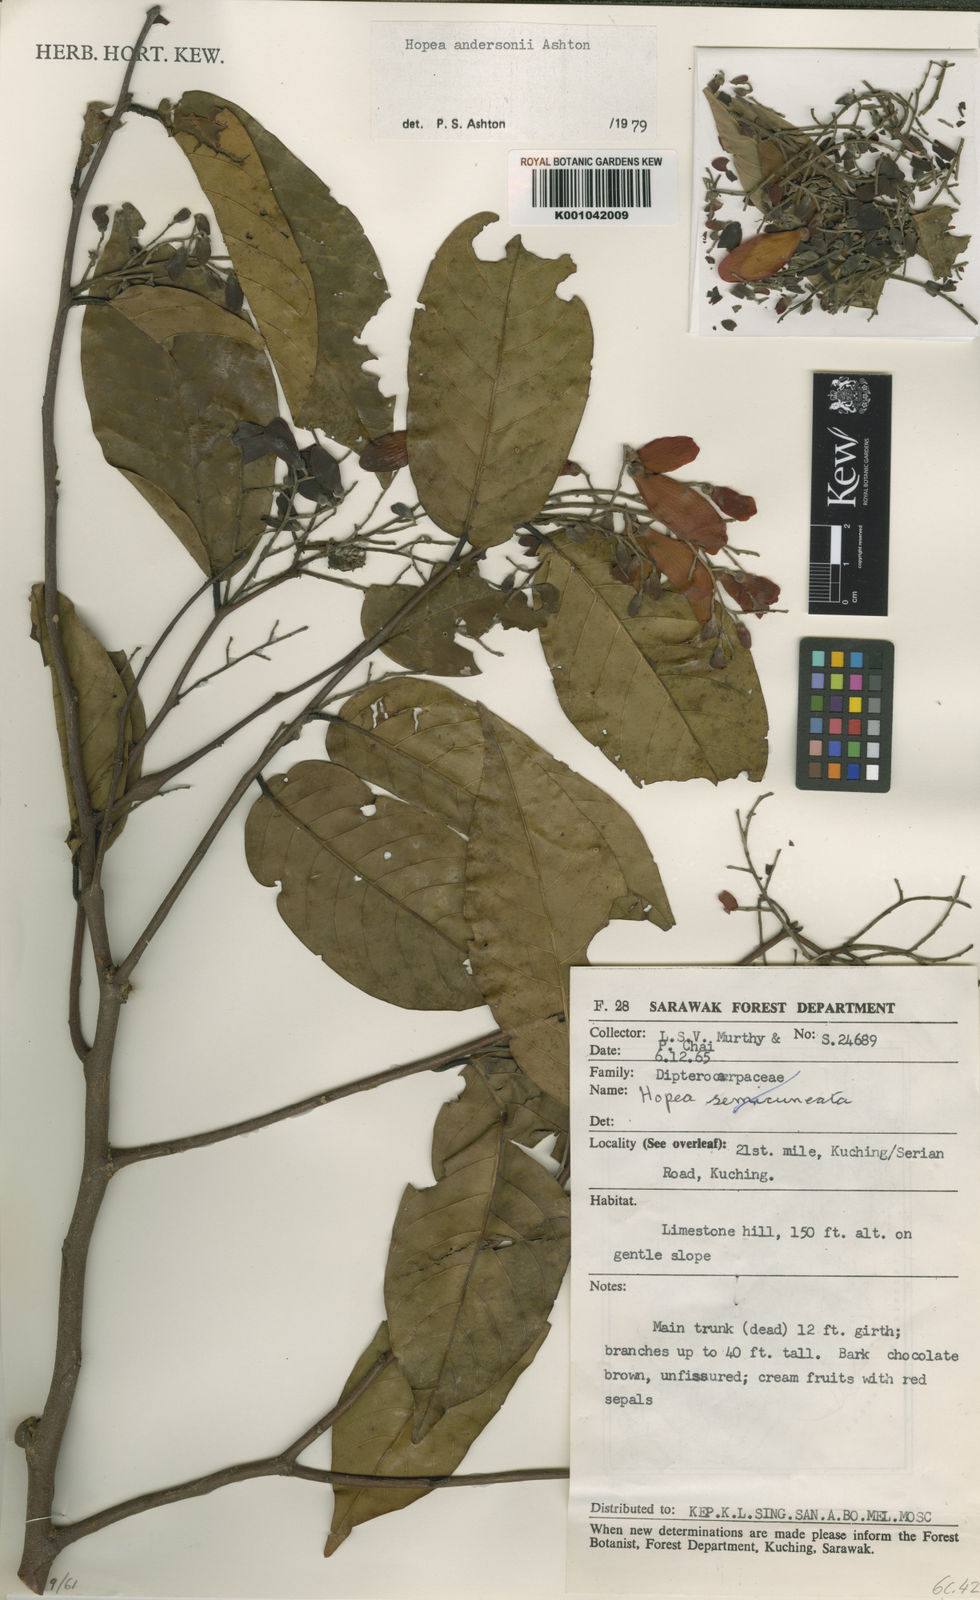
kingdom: Plantae
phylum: Tracheophyta
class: Magnoliopsida
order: Malvales
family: Dipterocarpaceae
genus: Hopea
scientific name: Hopea andersonii
